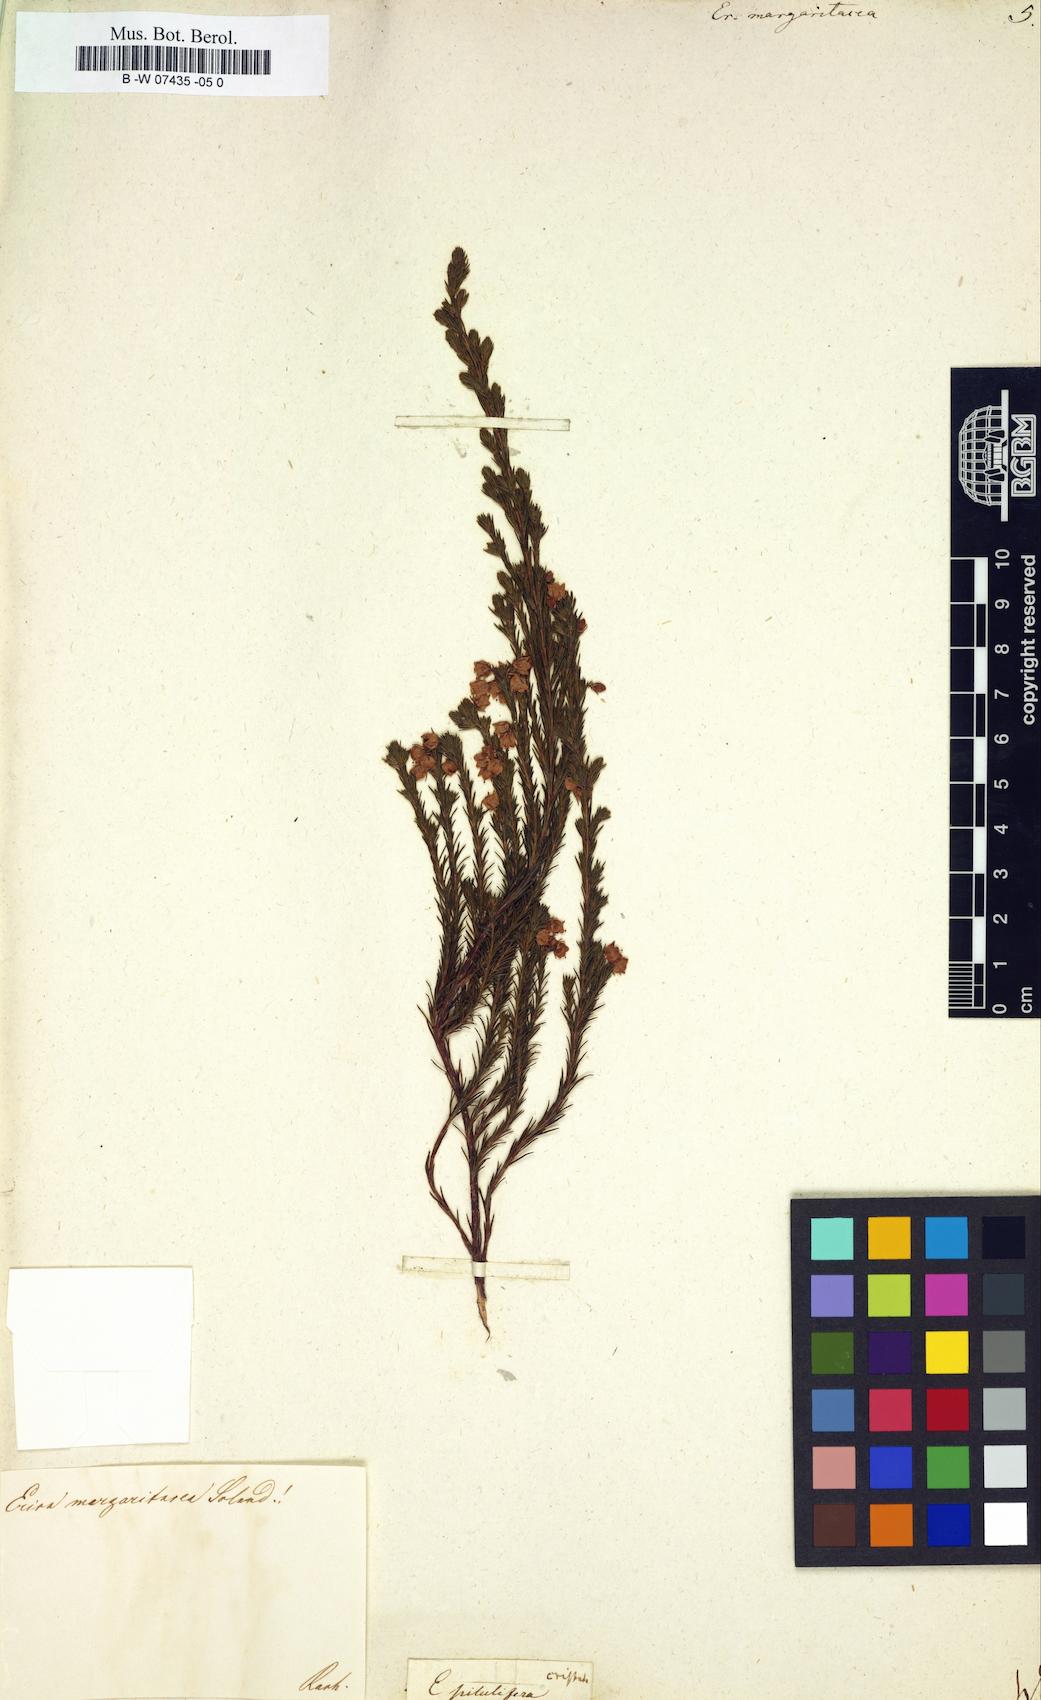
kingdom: Plantae
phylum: Tracheophyta
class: Magnoliopsida
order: Ericales
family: Ericaceae
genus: Erica
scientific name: Erica margaritacea
